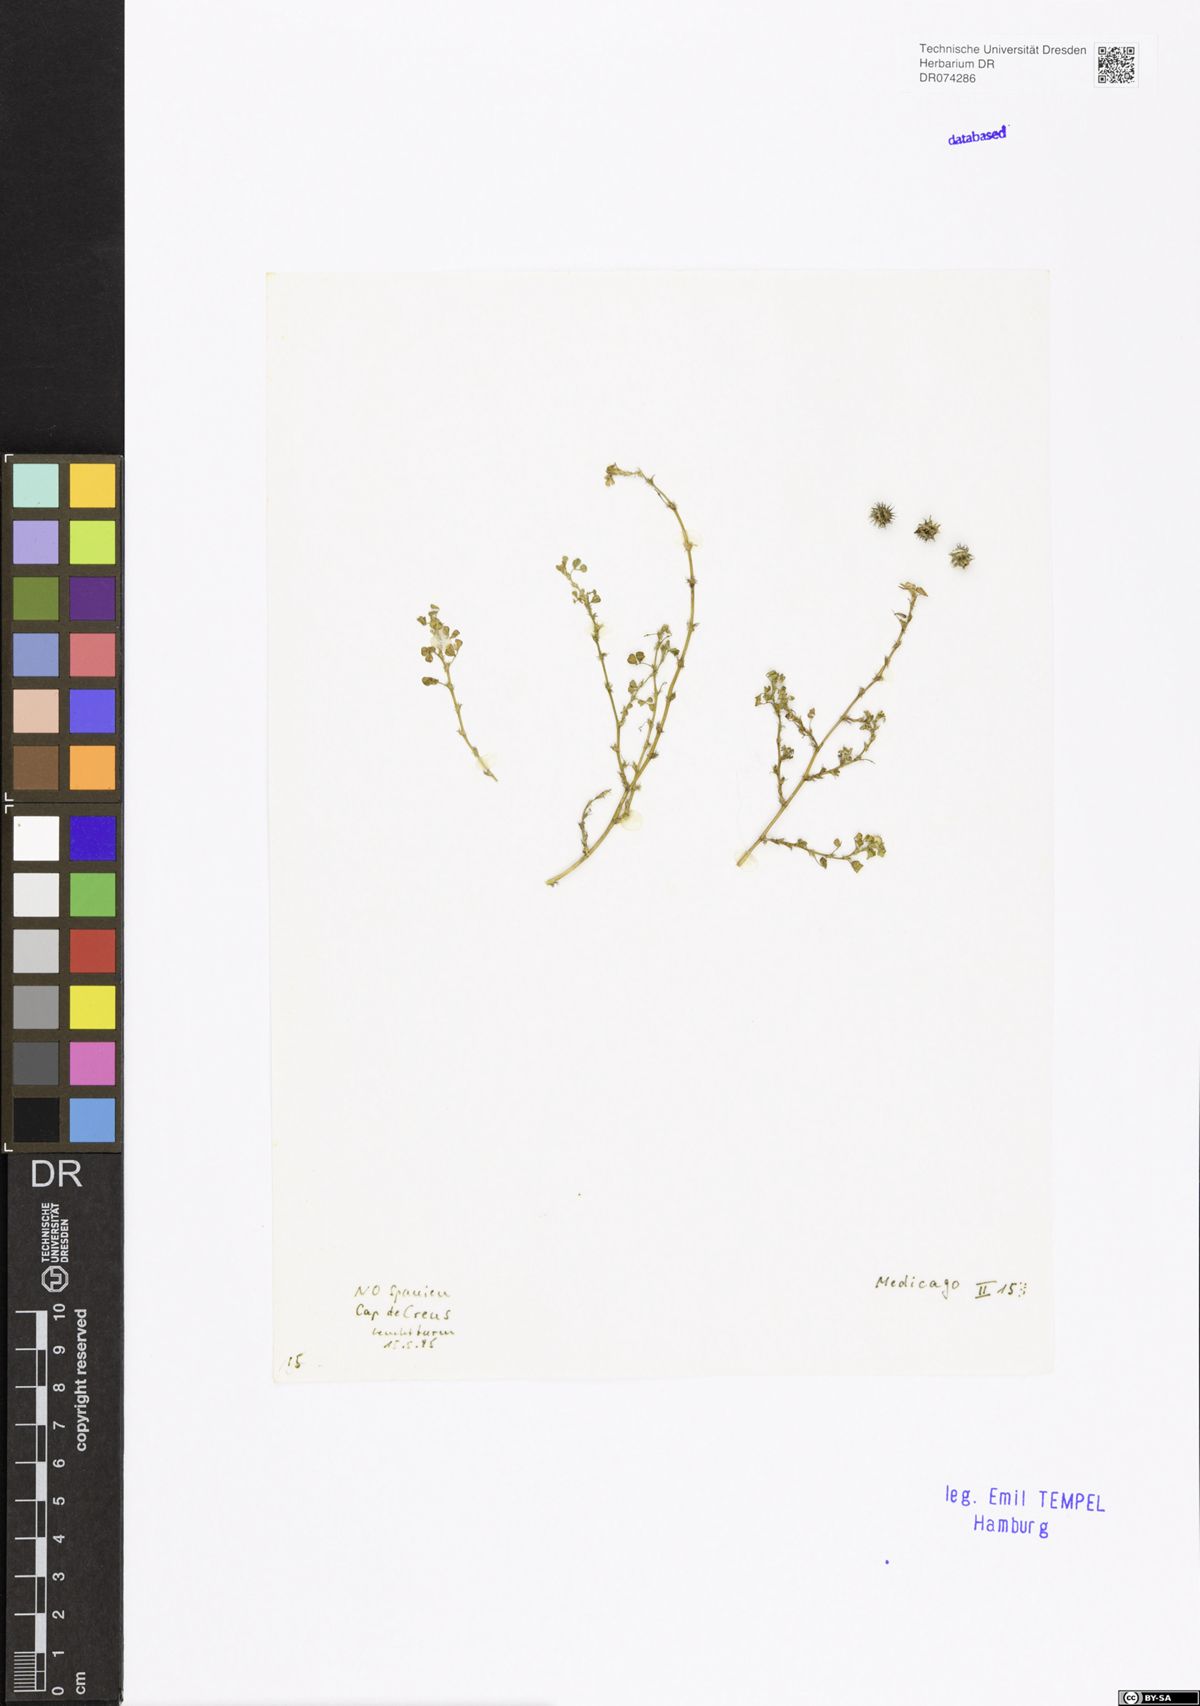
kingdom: Plantae
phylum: Tracheophyta
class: Magnoliopsida
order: Fabales
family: Fabaceae
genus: Medicago
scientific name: Medicago
